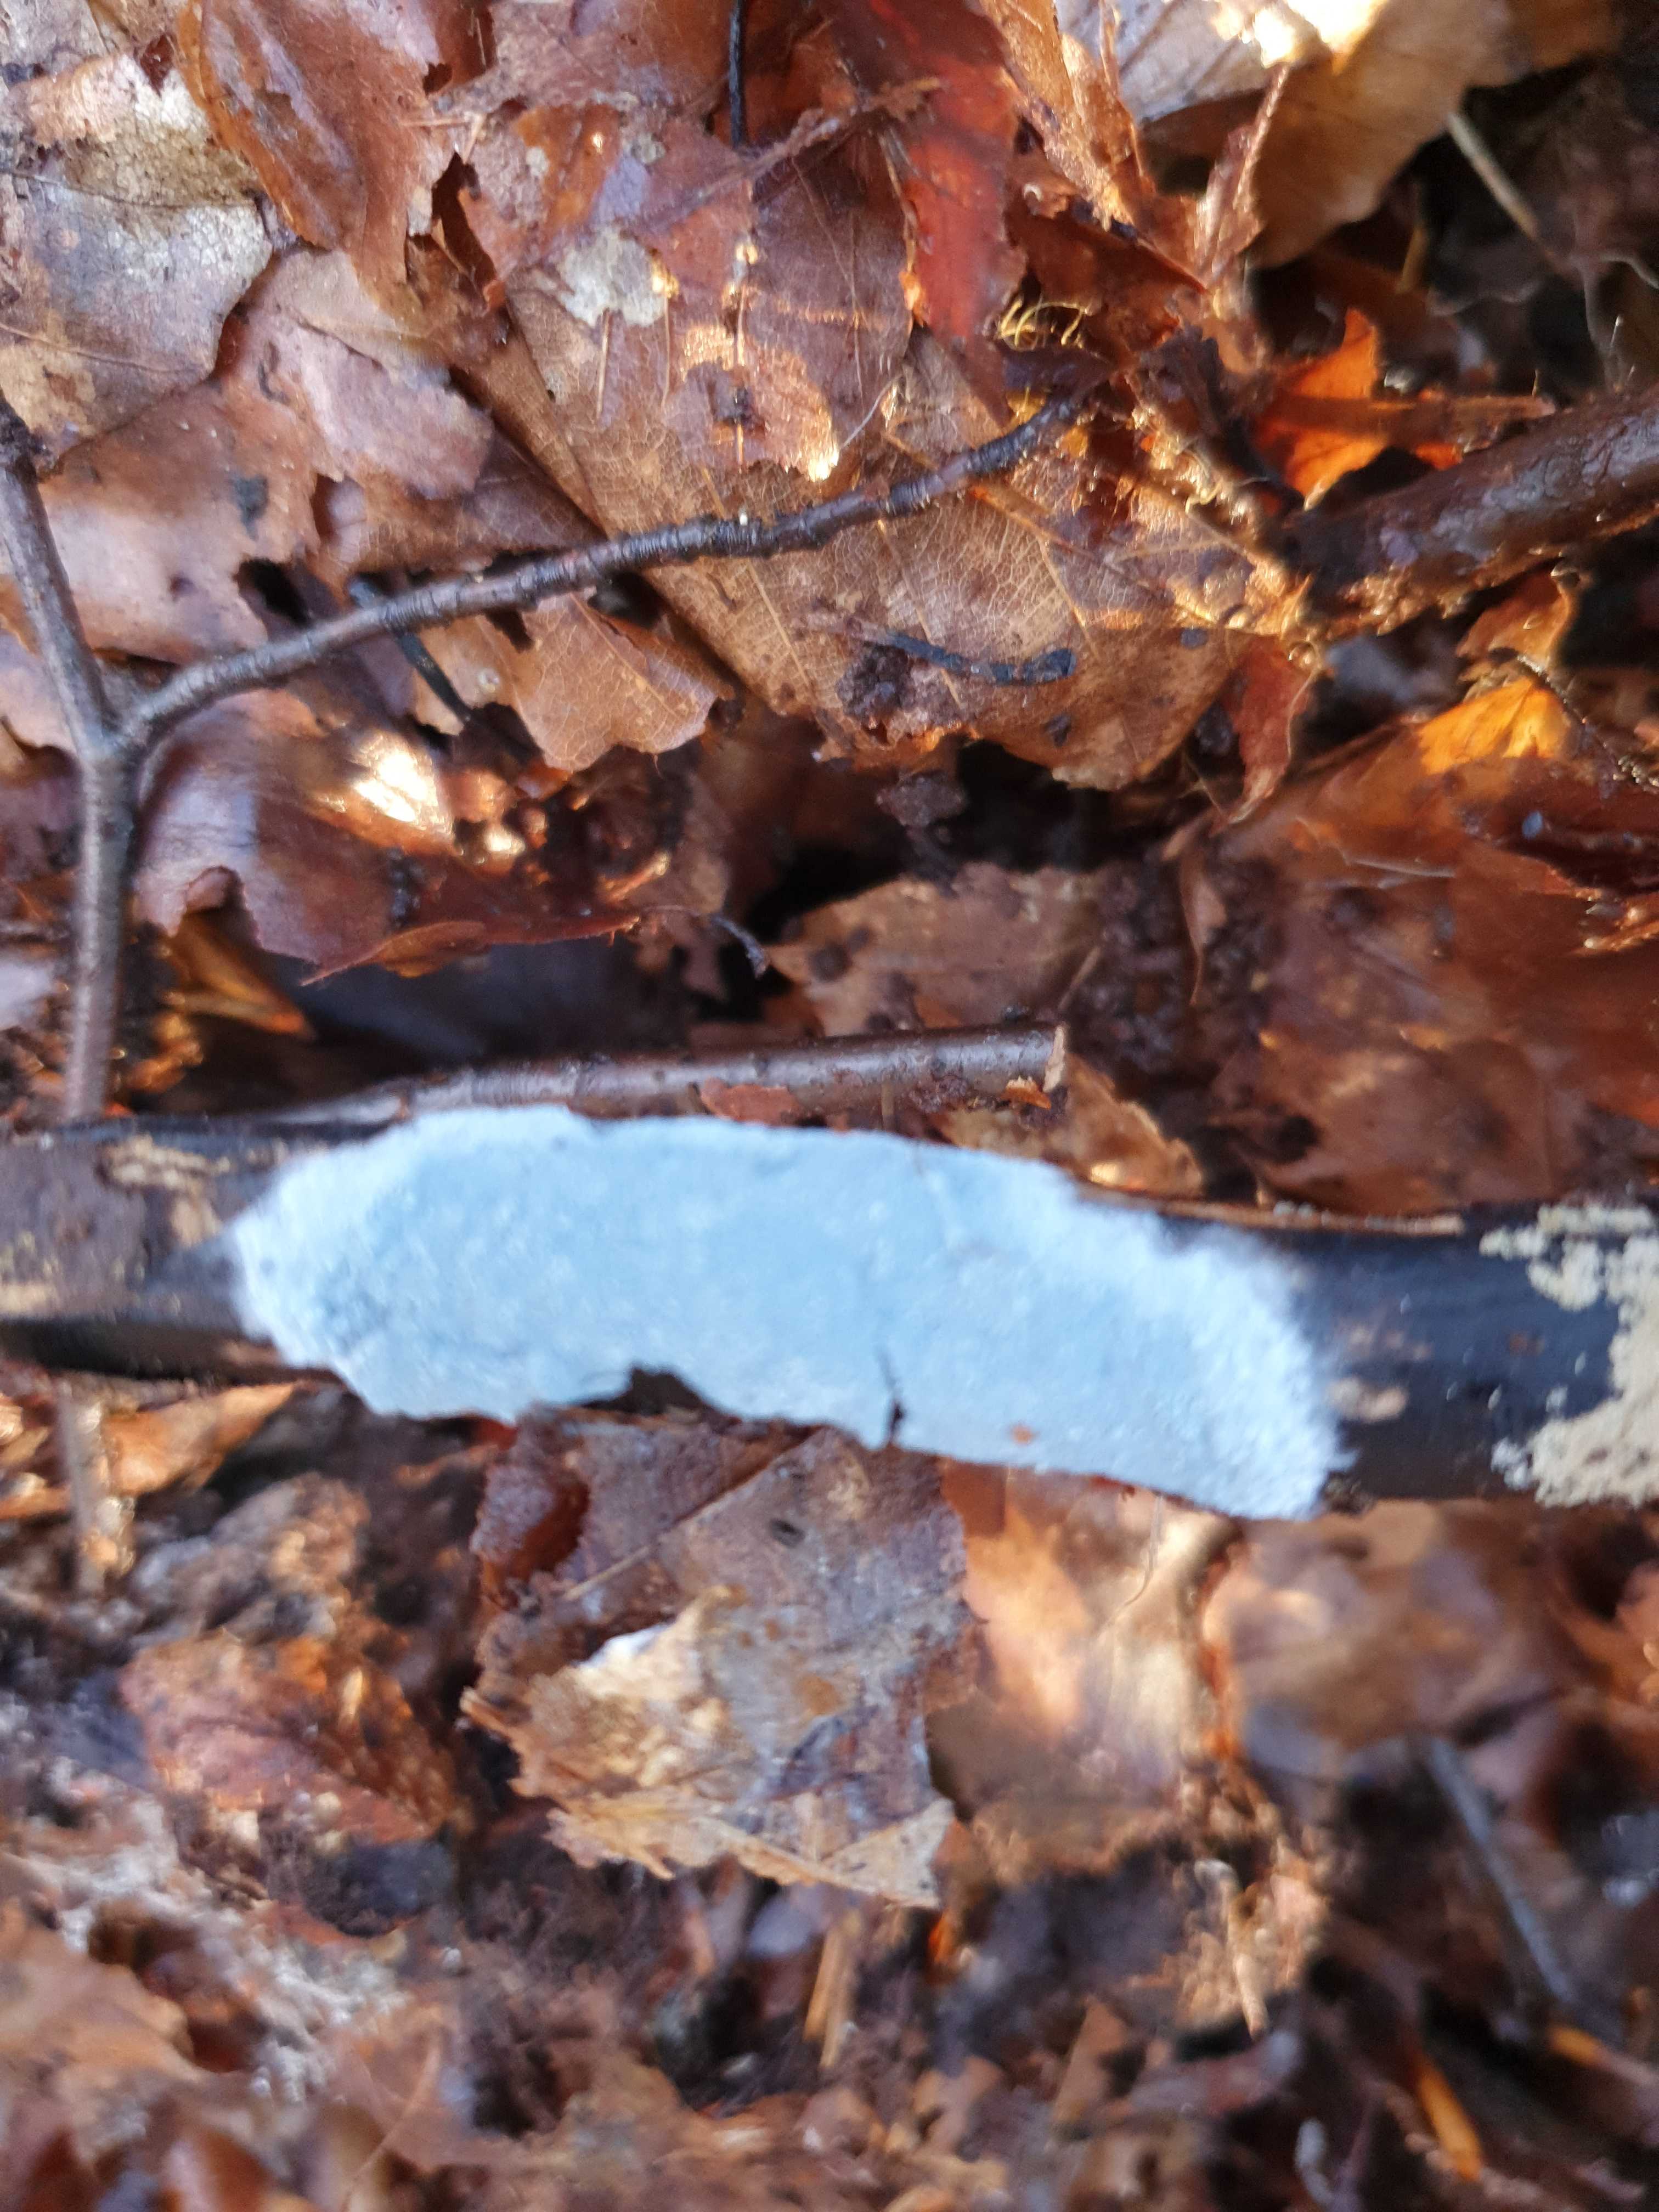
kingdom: Fungi
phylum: Basidiomycota
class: Agaricomycetes
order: Atheliales
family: Atheliaceae
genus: Byssocorticium
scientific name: Byssocorticium atrovirens
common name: blå førnehinde
